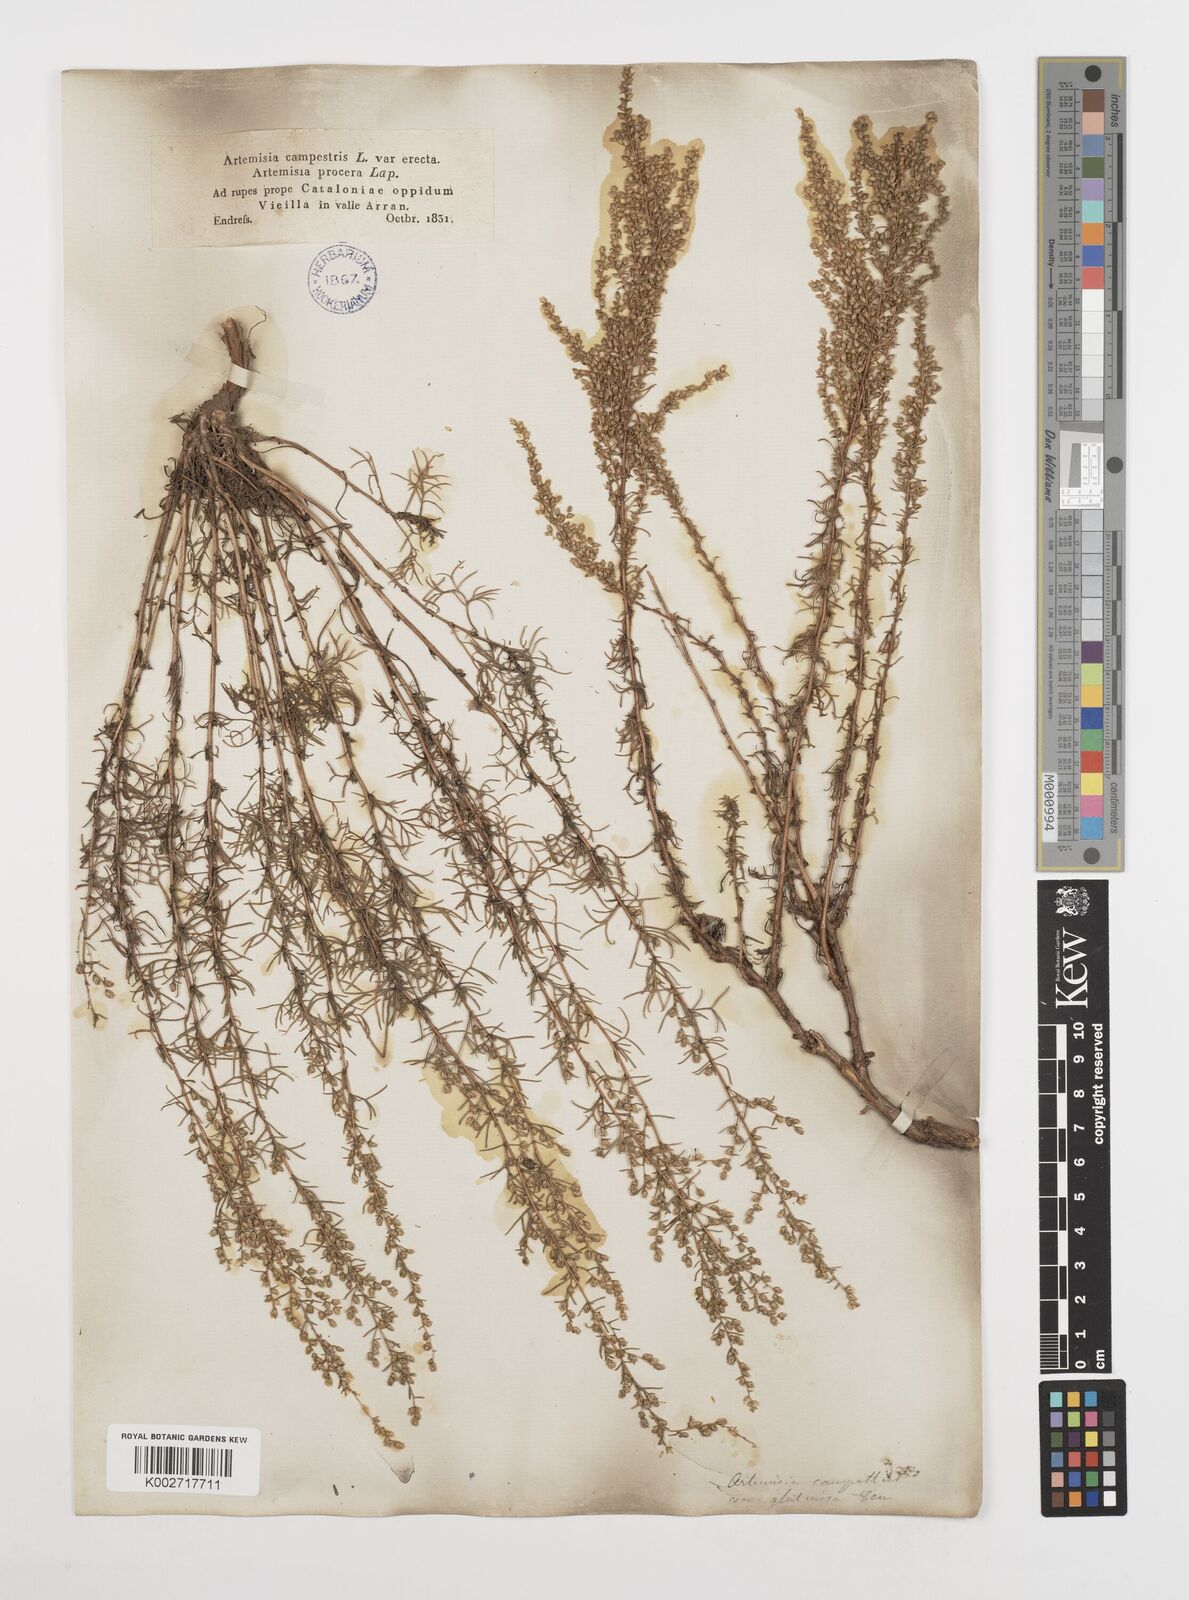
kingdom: Plantae
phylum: Tracheophyta
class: Magnoliopsida
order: Asterales
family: Asteraceae
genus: Artemisia
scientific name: Artemisia campestris
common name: Field wormwood
